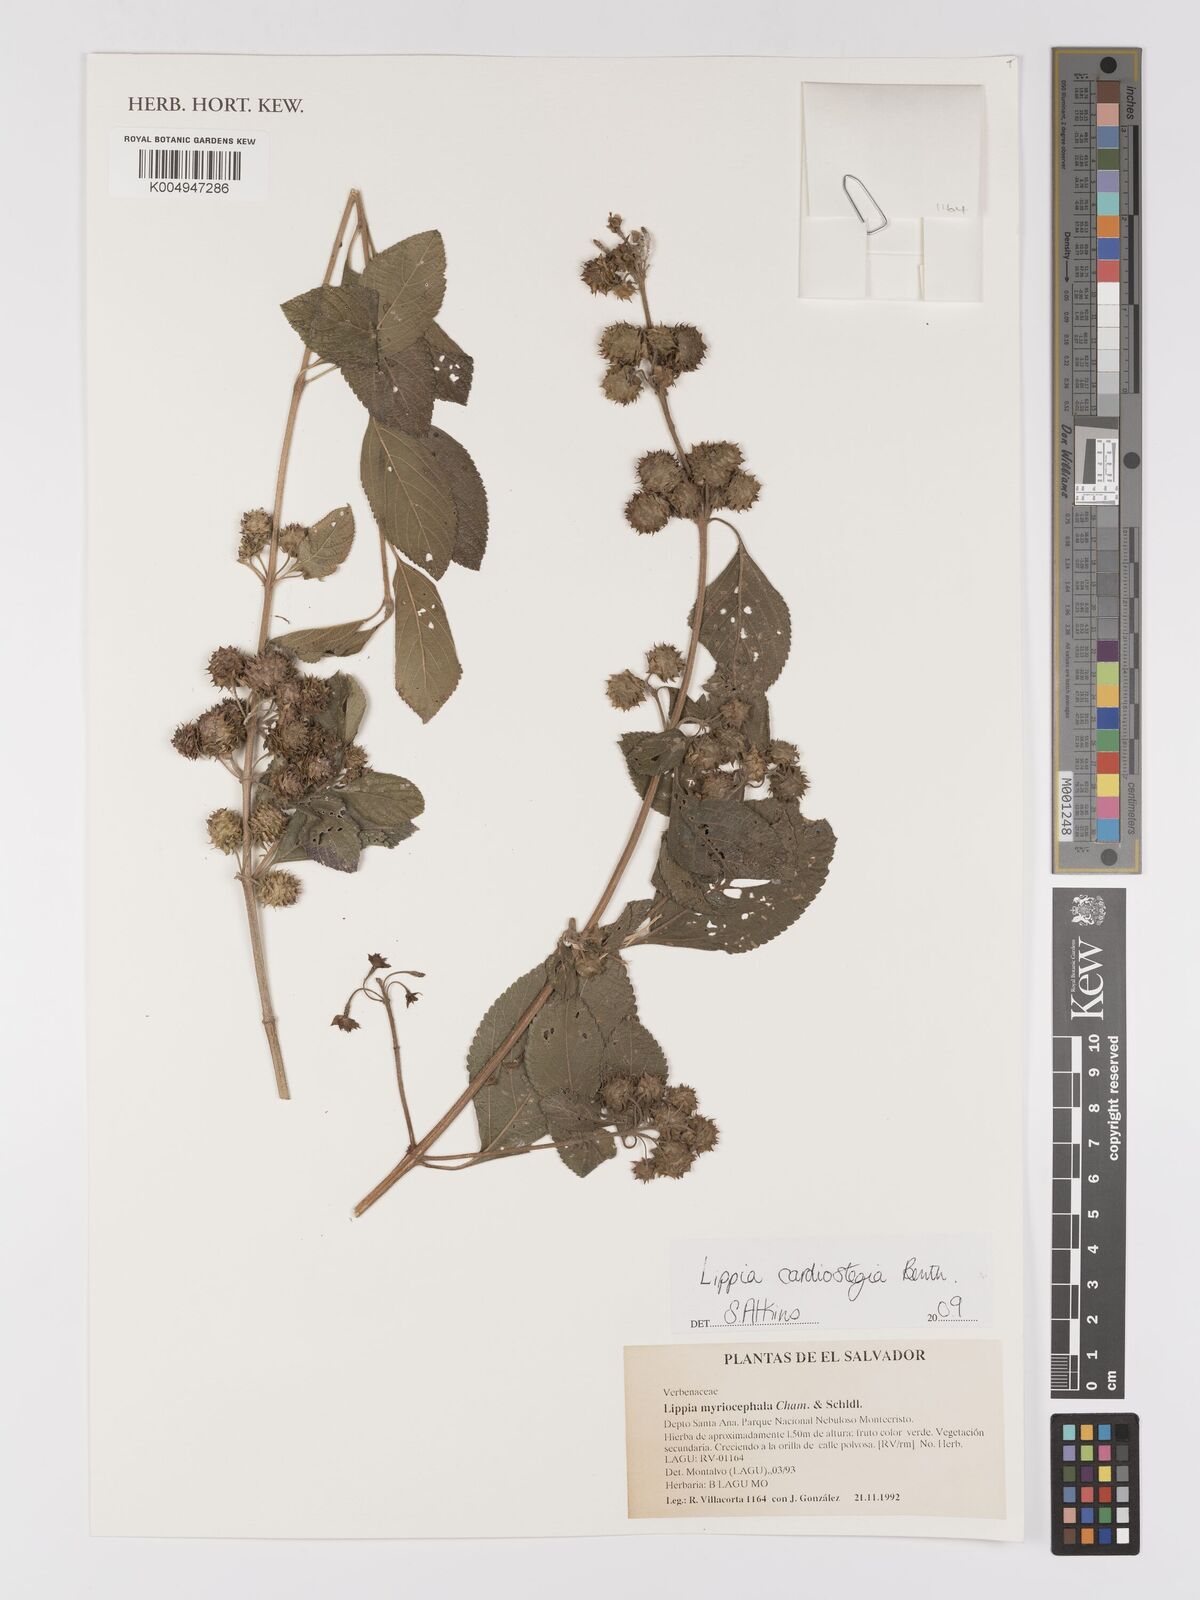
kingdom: Plantae
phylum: Tracheophyta
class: Magnoliopsida
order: Lamiales
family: Verbenaceae
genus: Lippia
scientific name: Lippia cardiostegia
